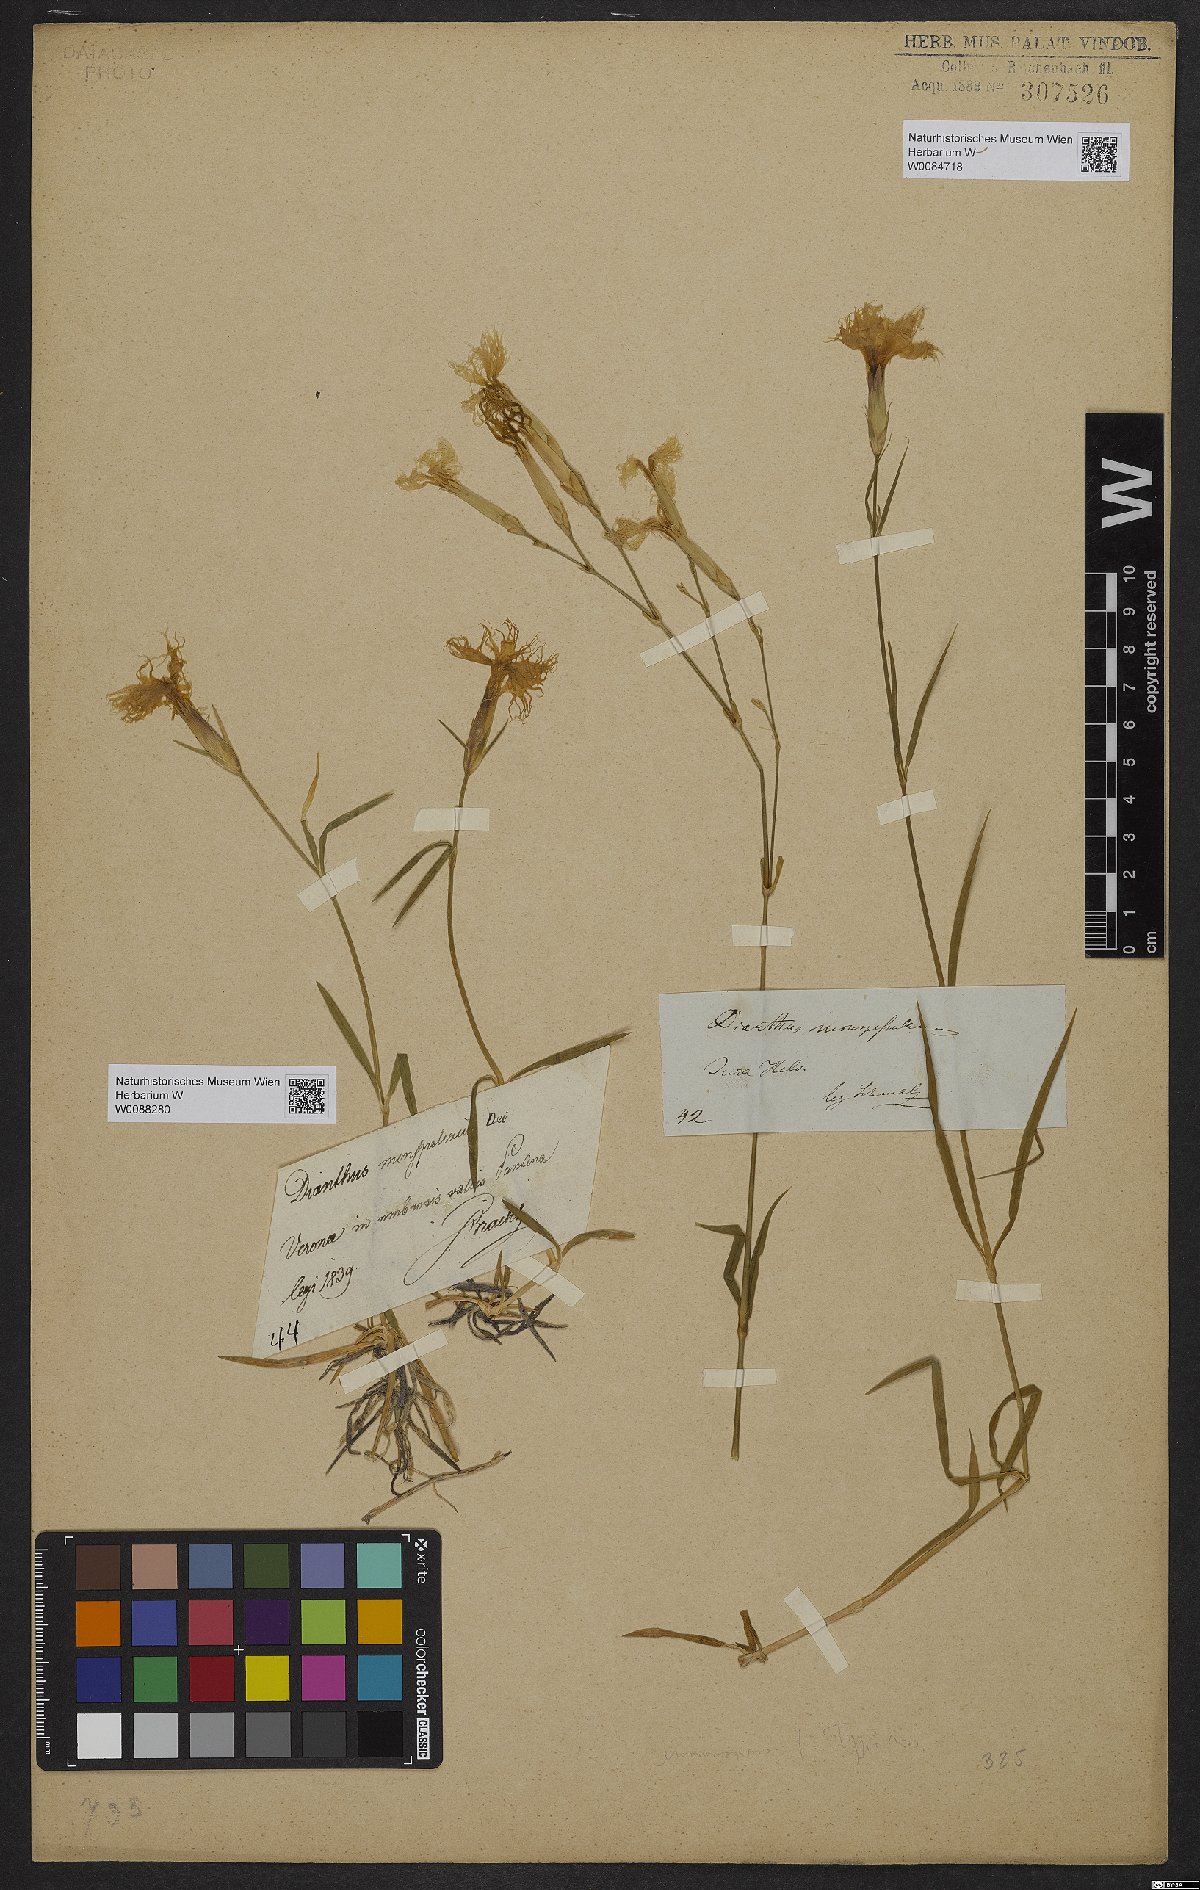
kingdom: Plantae
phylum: Tracheophyta
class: Magnoliopsida
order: Caryophyllales
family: Caryophyllaceae
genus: Dianthus
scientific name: Dianthus hyssopifolius
